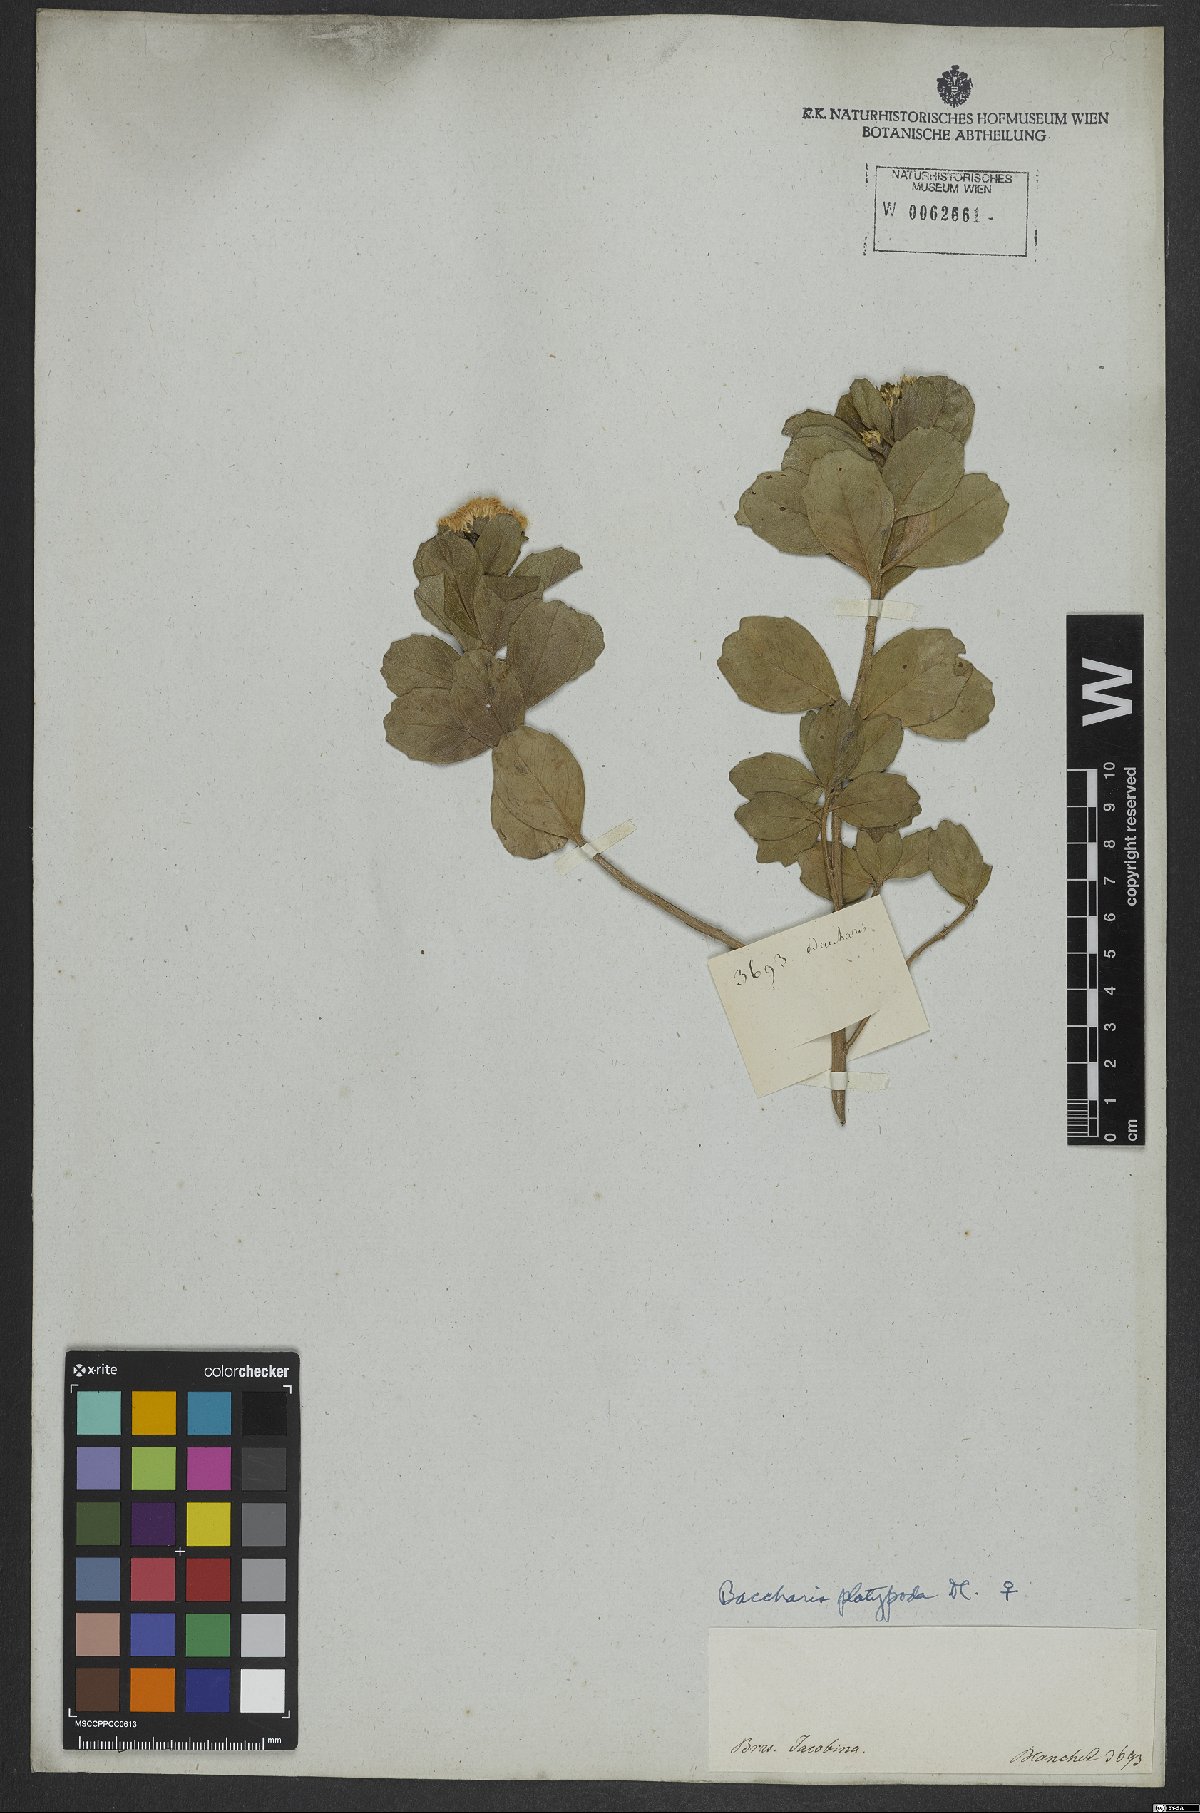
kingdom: Plantae
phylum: Tracheophyta
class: Magnoliopsida
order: Asterales
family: Asteraceae
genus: Baccharis
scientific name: Baccharis platypoda
